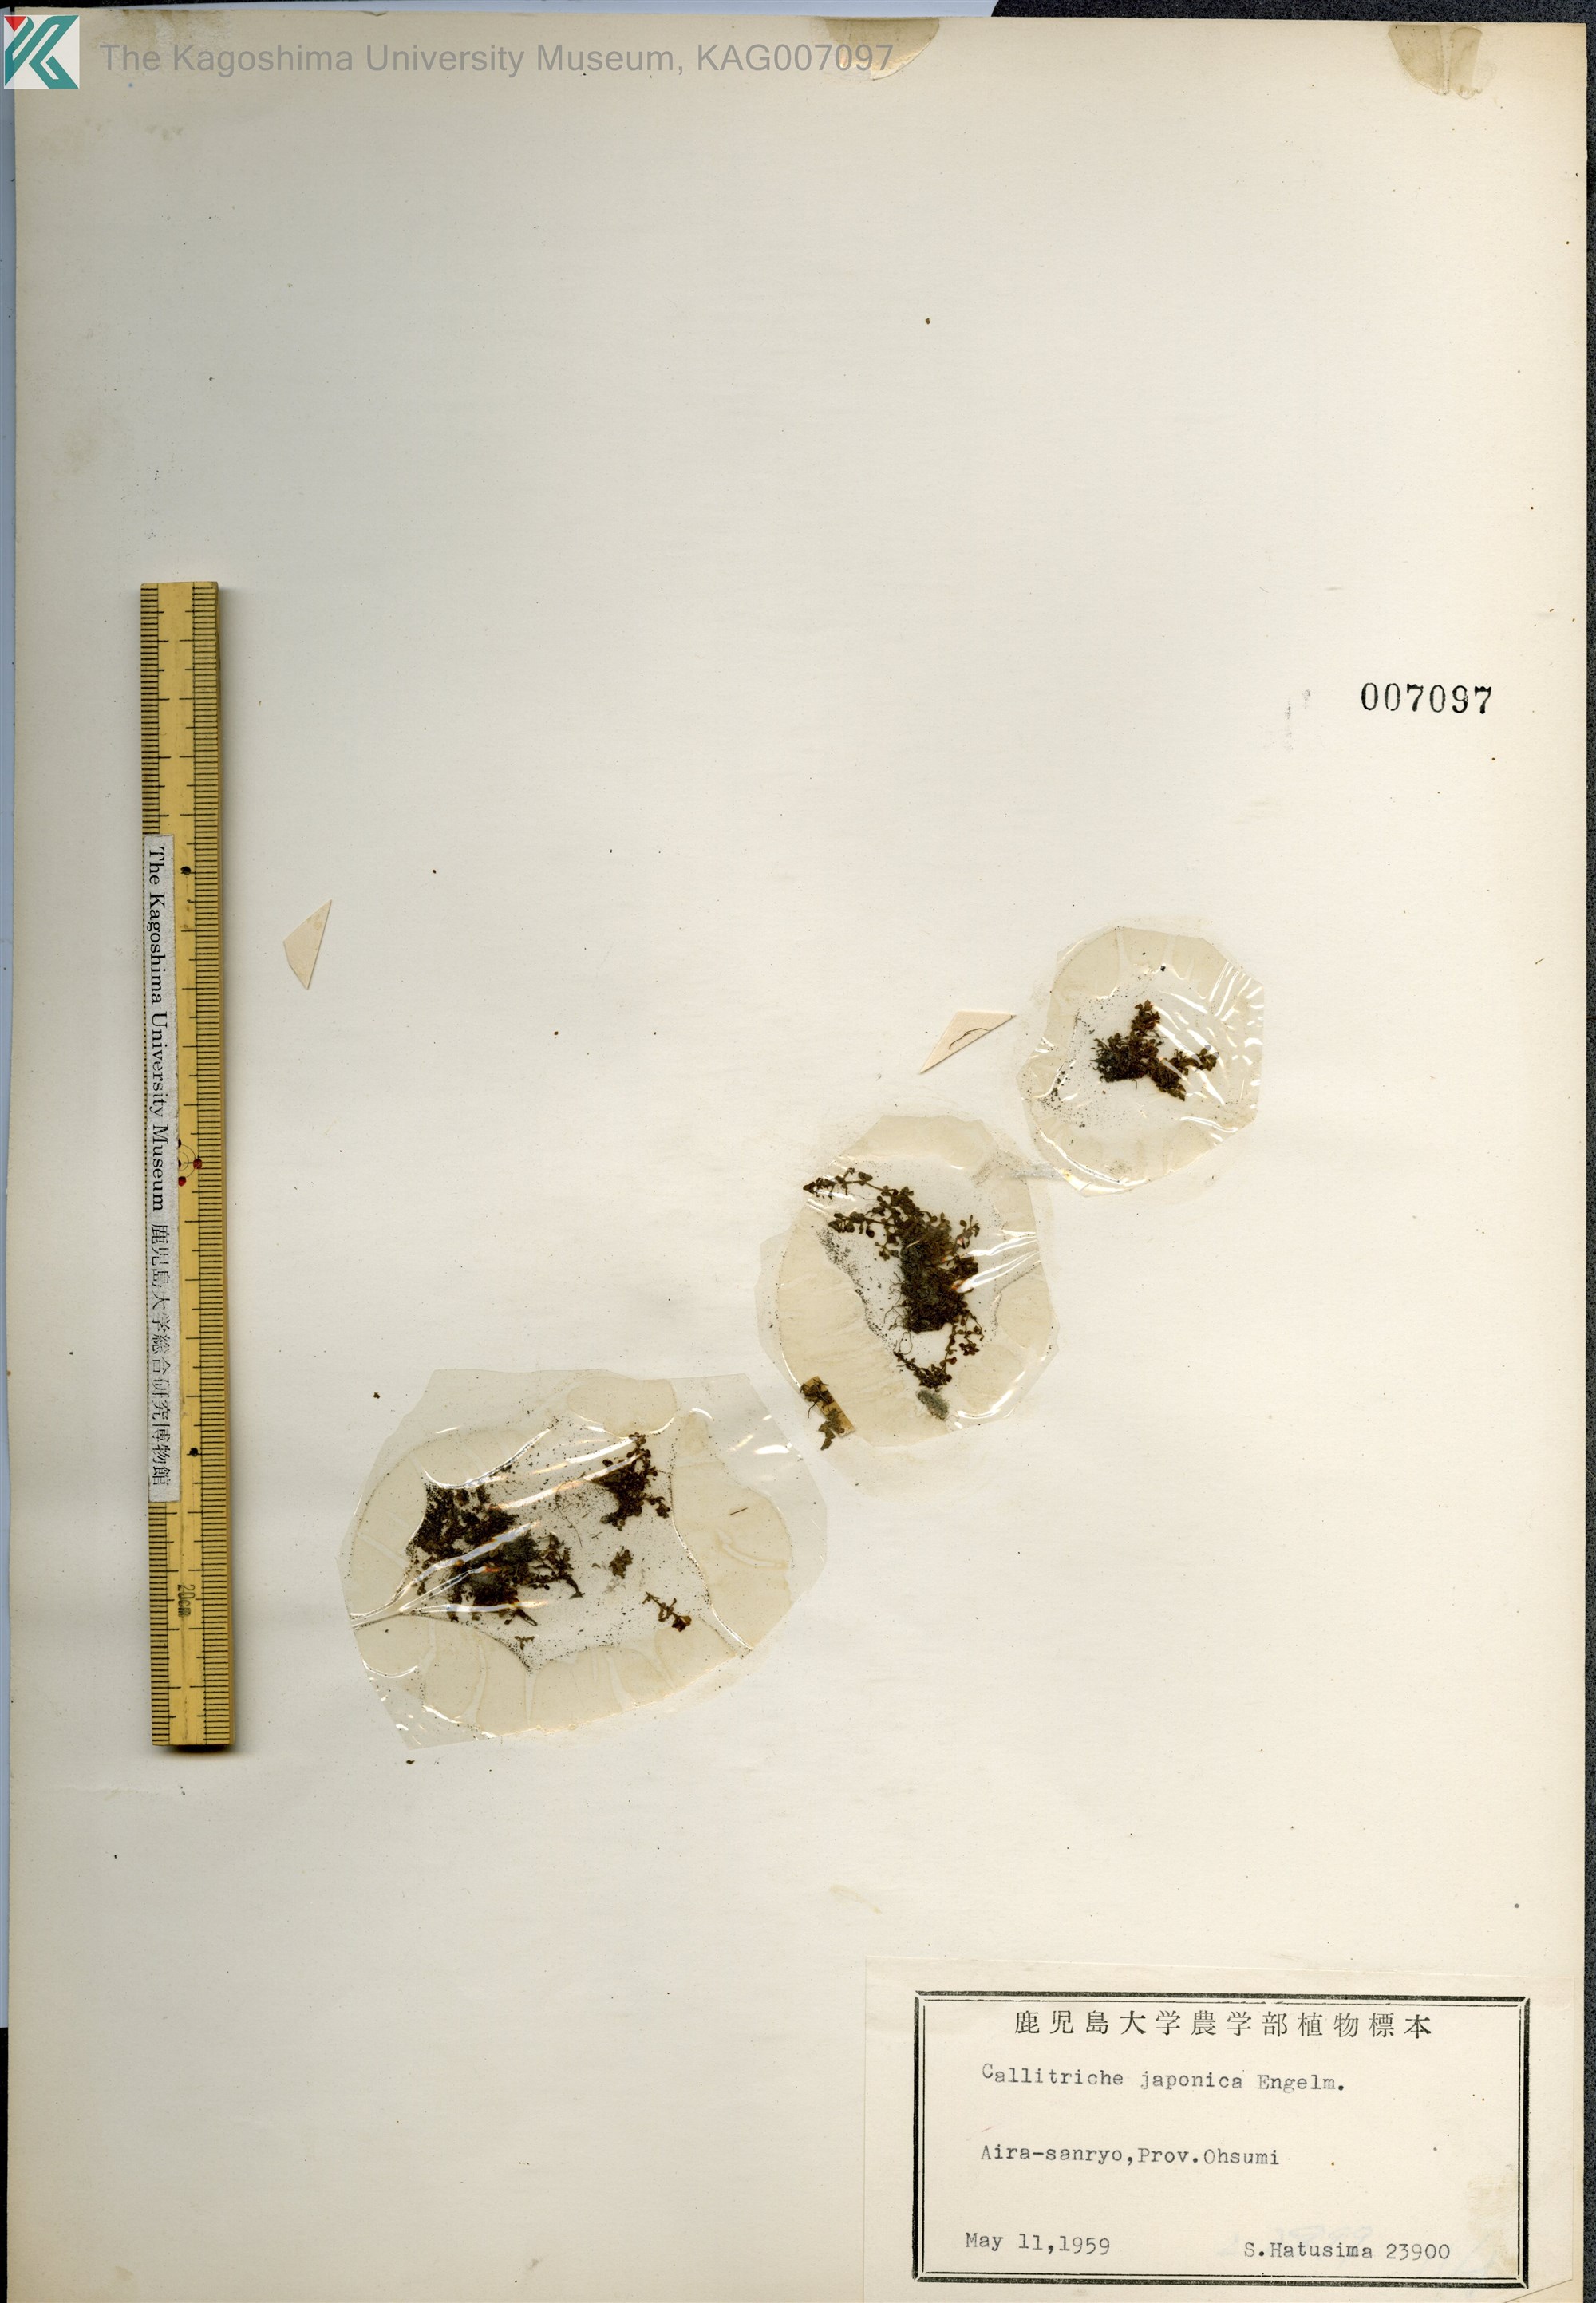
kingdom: Plantae
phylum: Tracheophyta
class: Magnoliopsida
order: Lamiales
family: Plantaginaceae
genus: Callitriche
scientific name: Callitriche japonica
